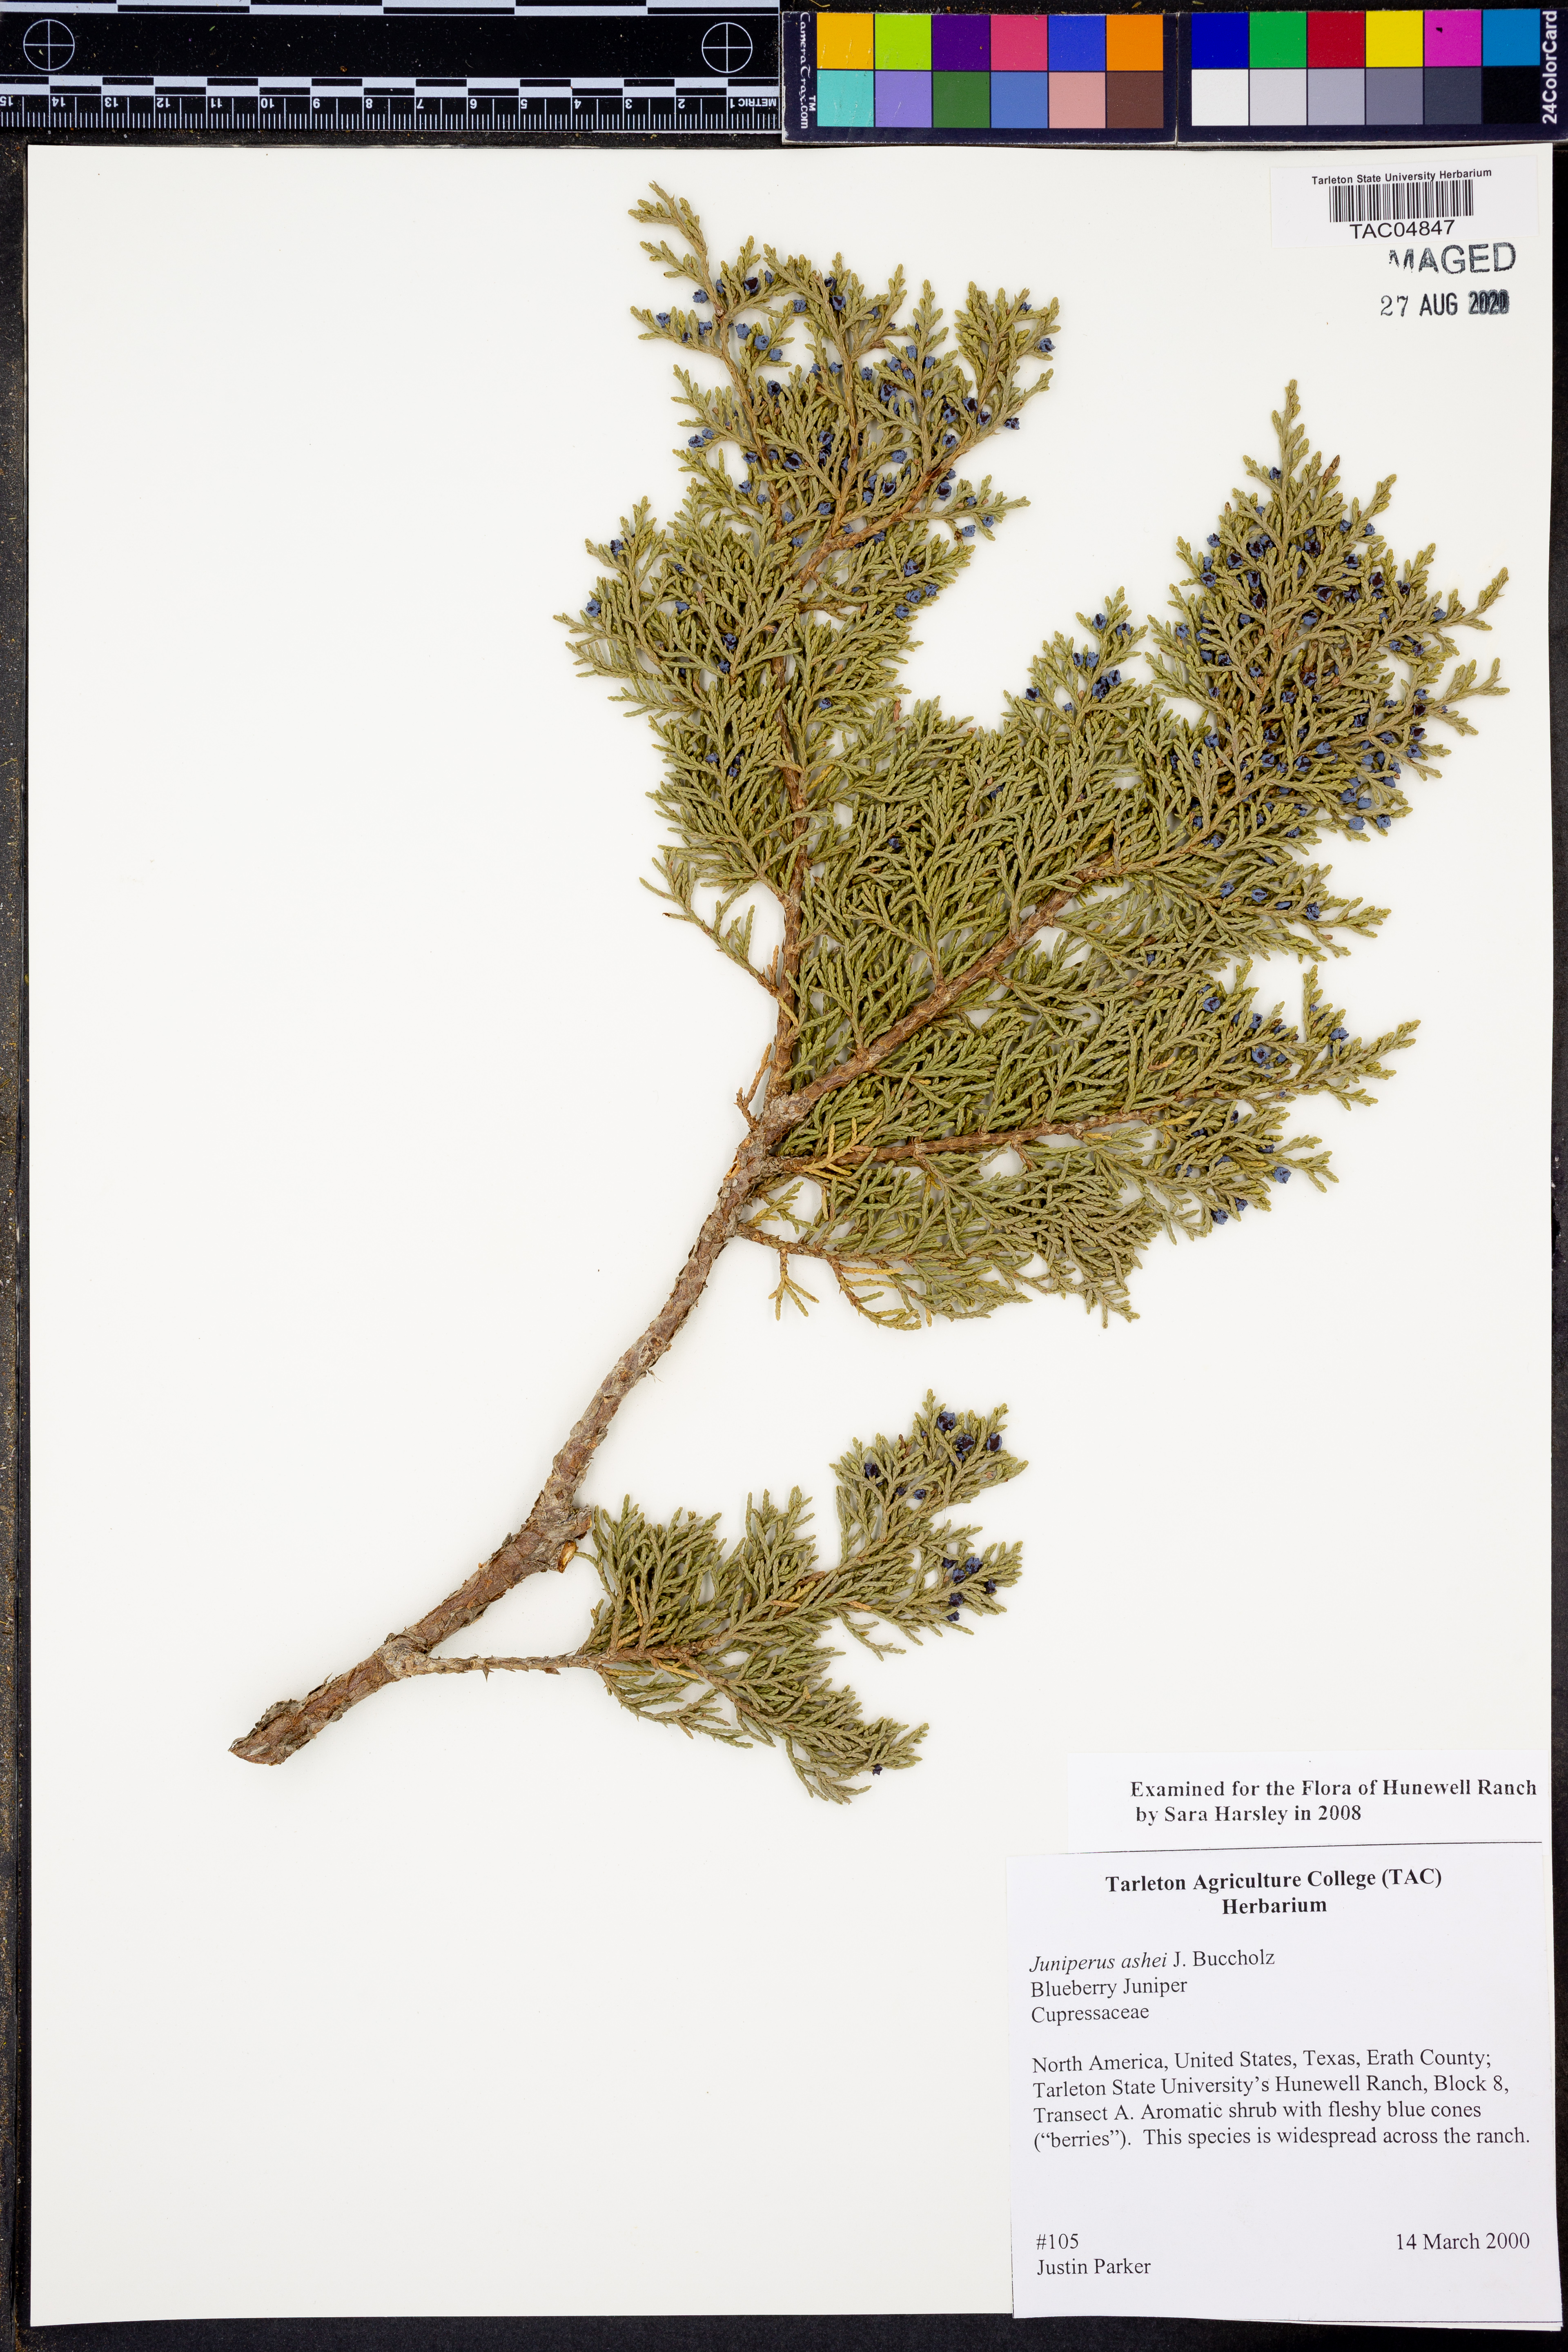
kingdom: Plantae
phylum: Tracheophyta
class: Pinopsida
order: Pinales
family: Cupressaceae
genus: Juniperus
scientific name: Juniperus ashei
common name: Mexican juniper
